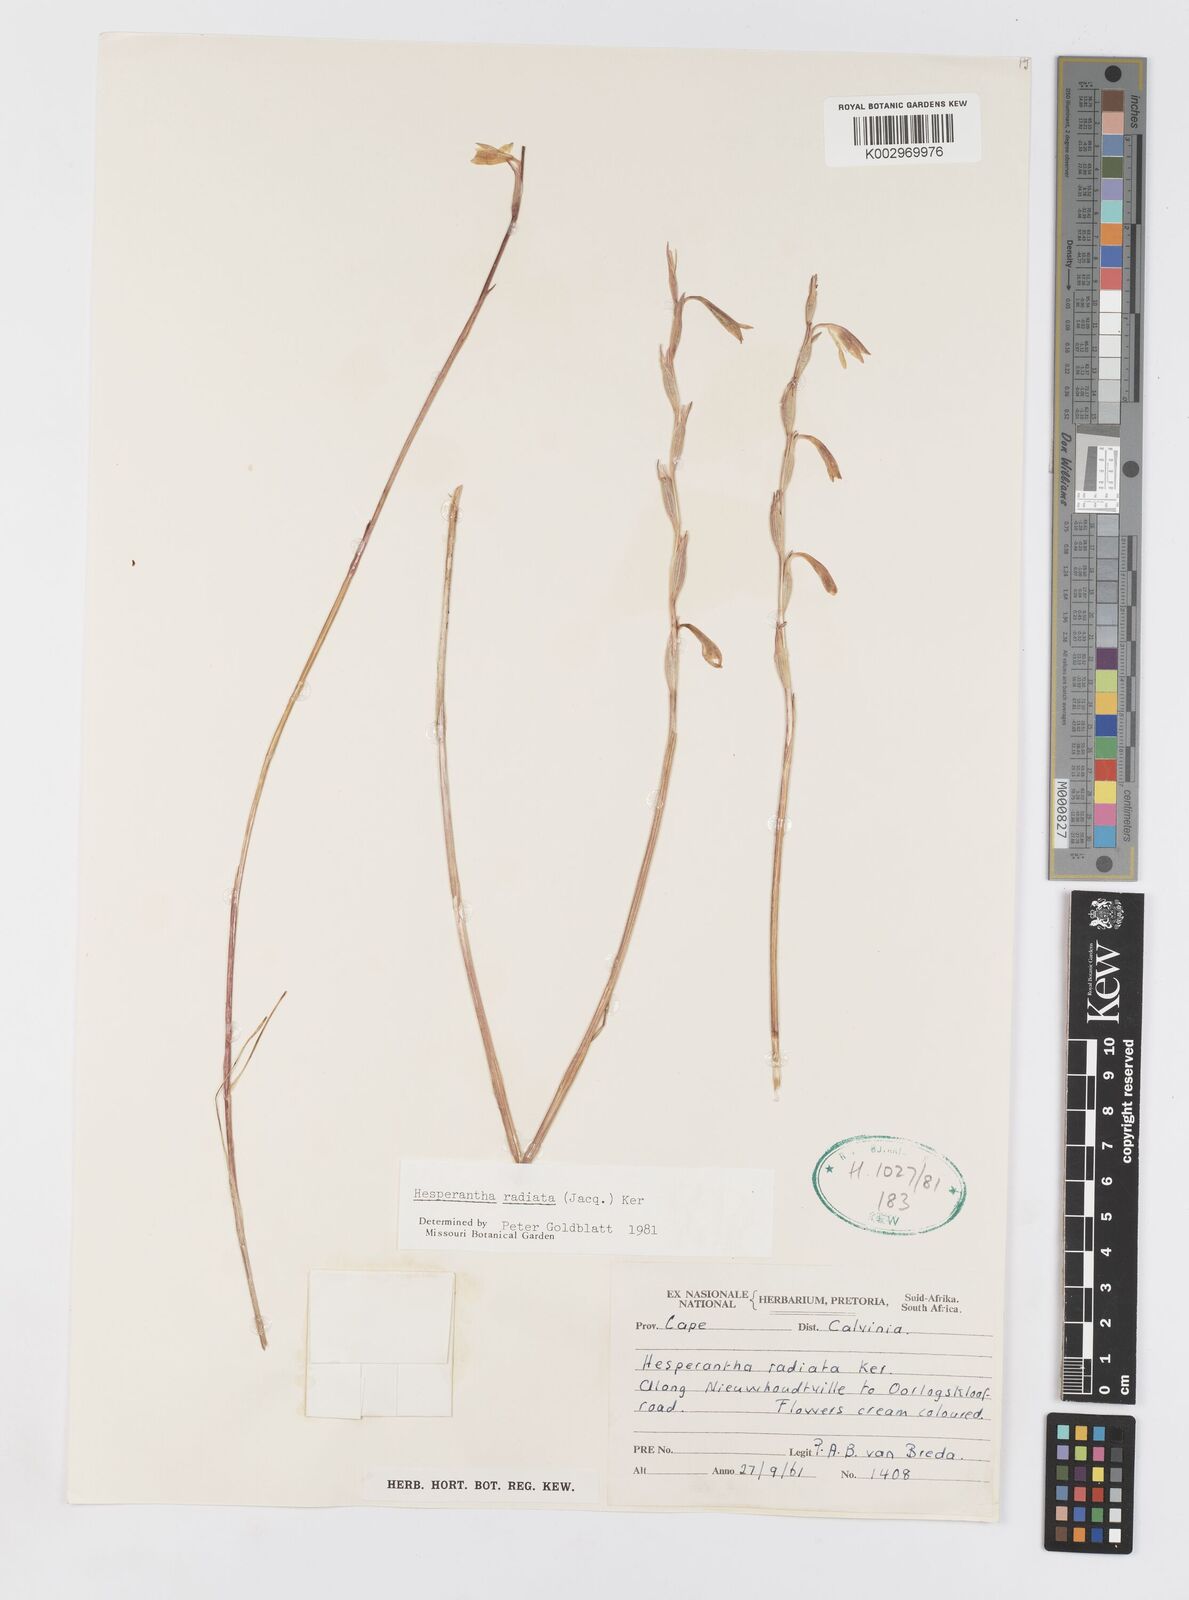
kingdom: Plantae
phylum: Tracheophyta
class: Liliopsida
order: Asparagales
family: Iridaceae
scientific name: Iridaceae
